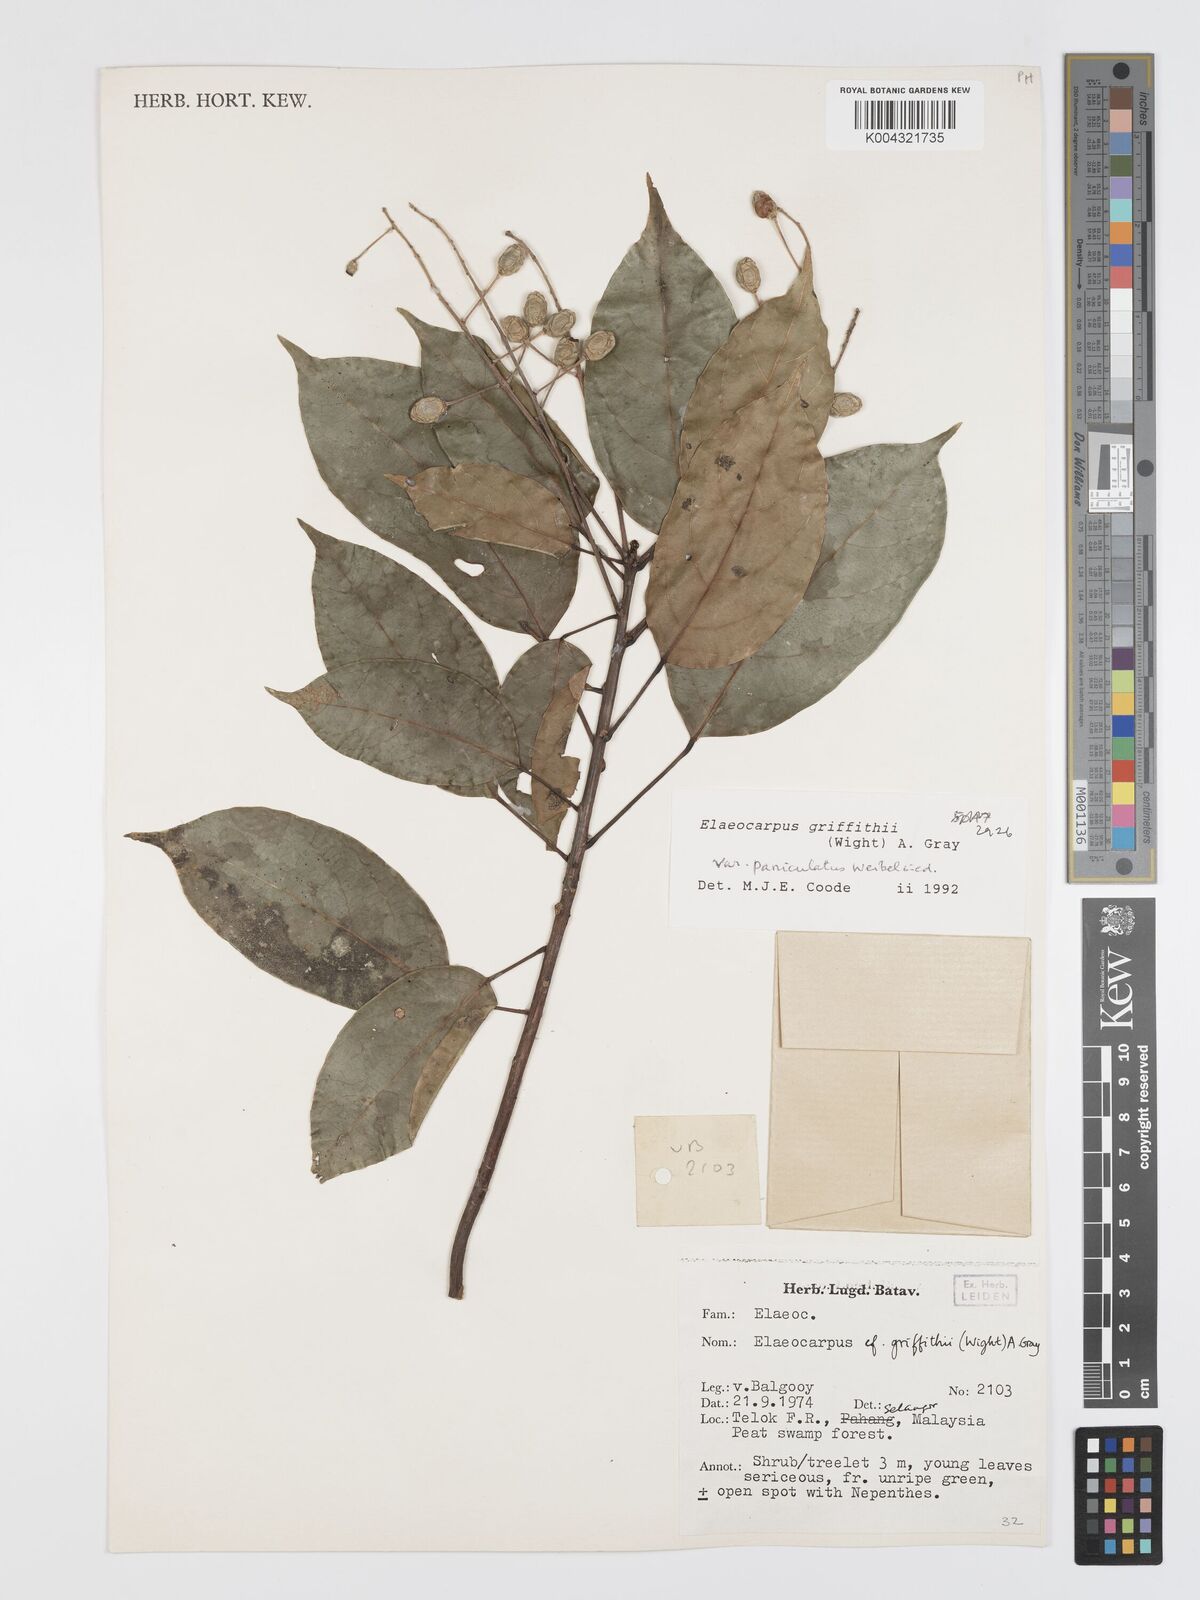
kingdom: Plantae
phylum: Tracheophyta
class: Magnoliopsida
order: Oxalidales
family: Elaeocarpaceae
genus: Elaeocarpus
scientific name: Elaeocarpus griffithii
